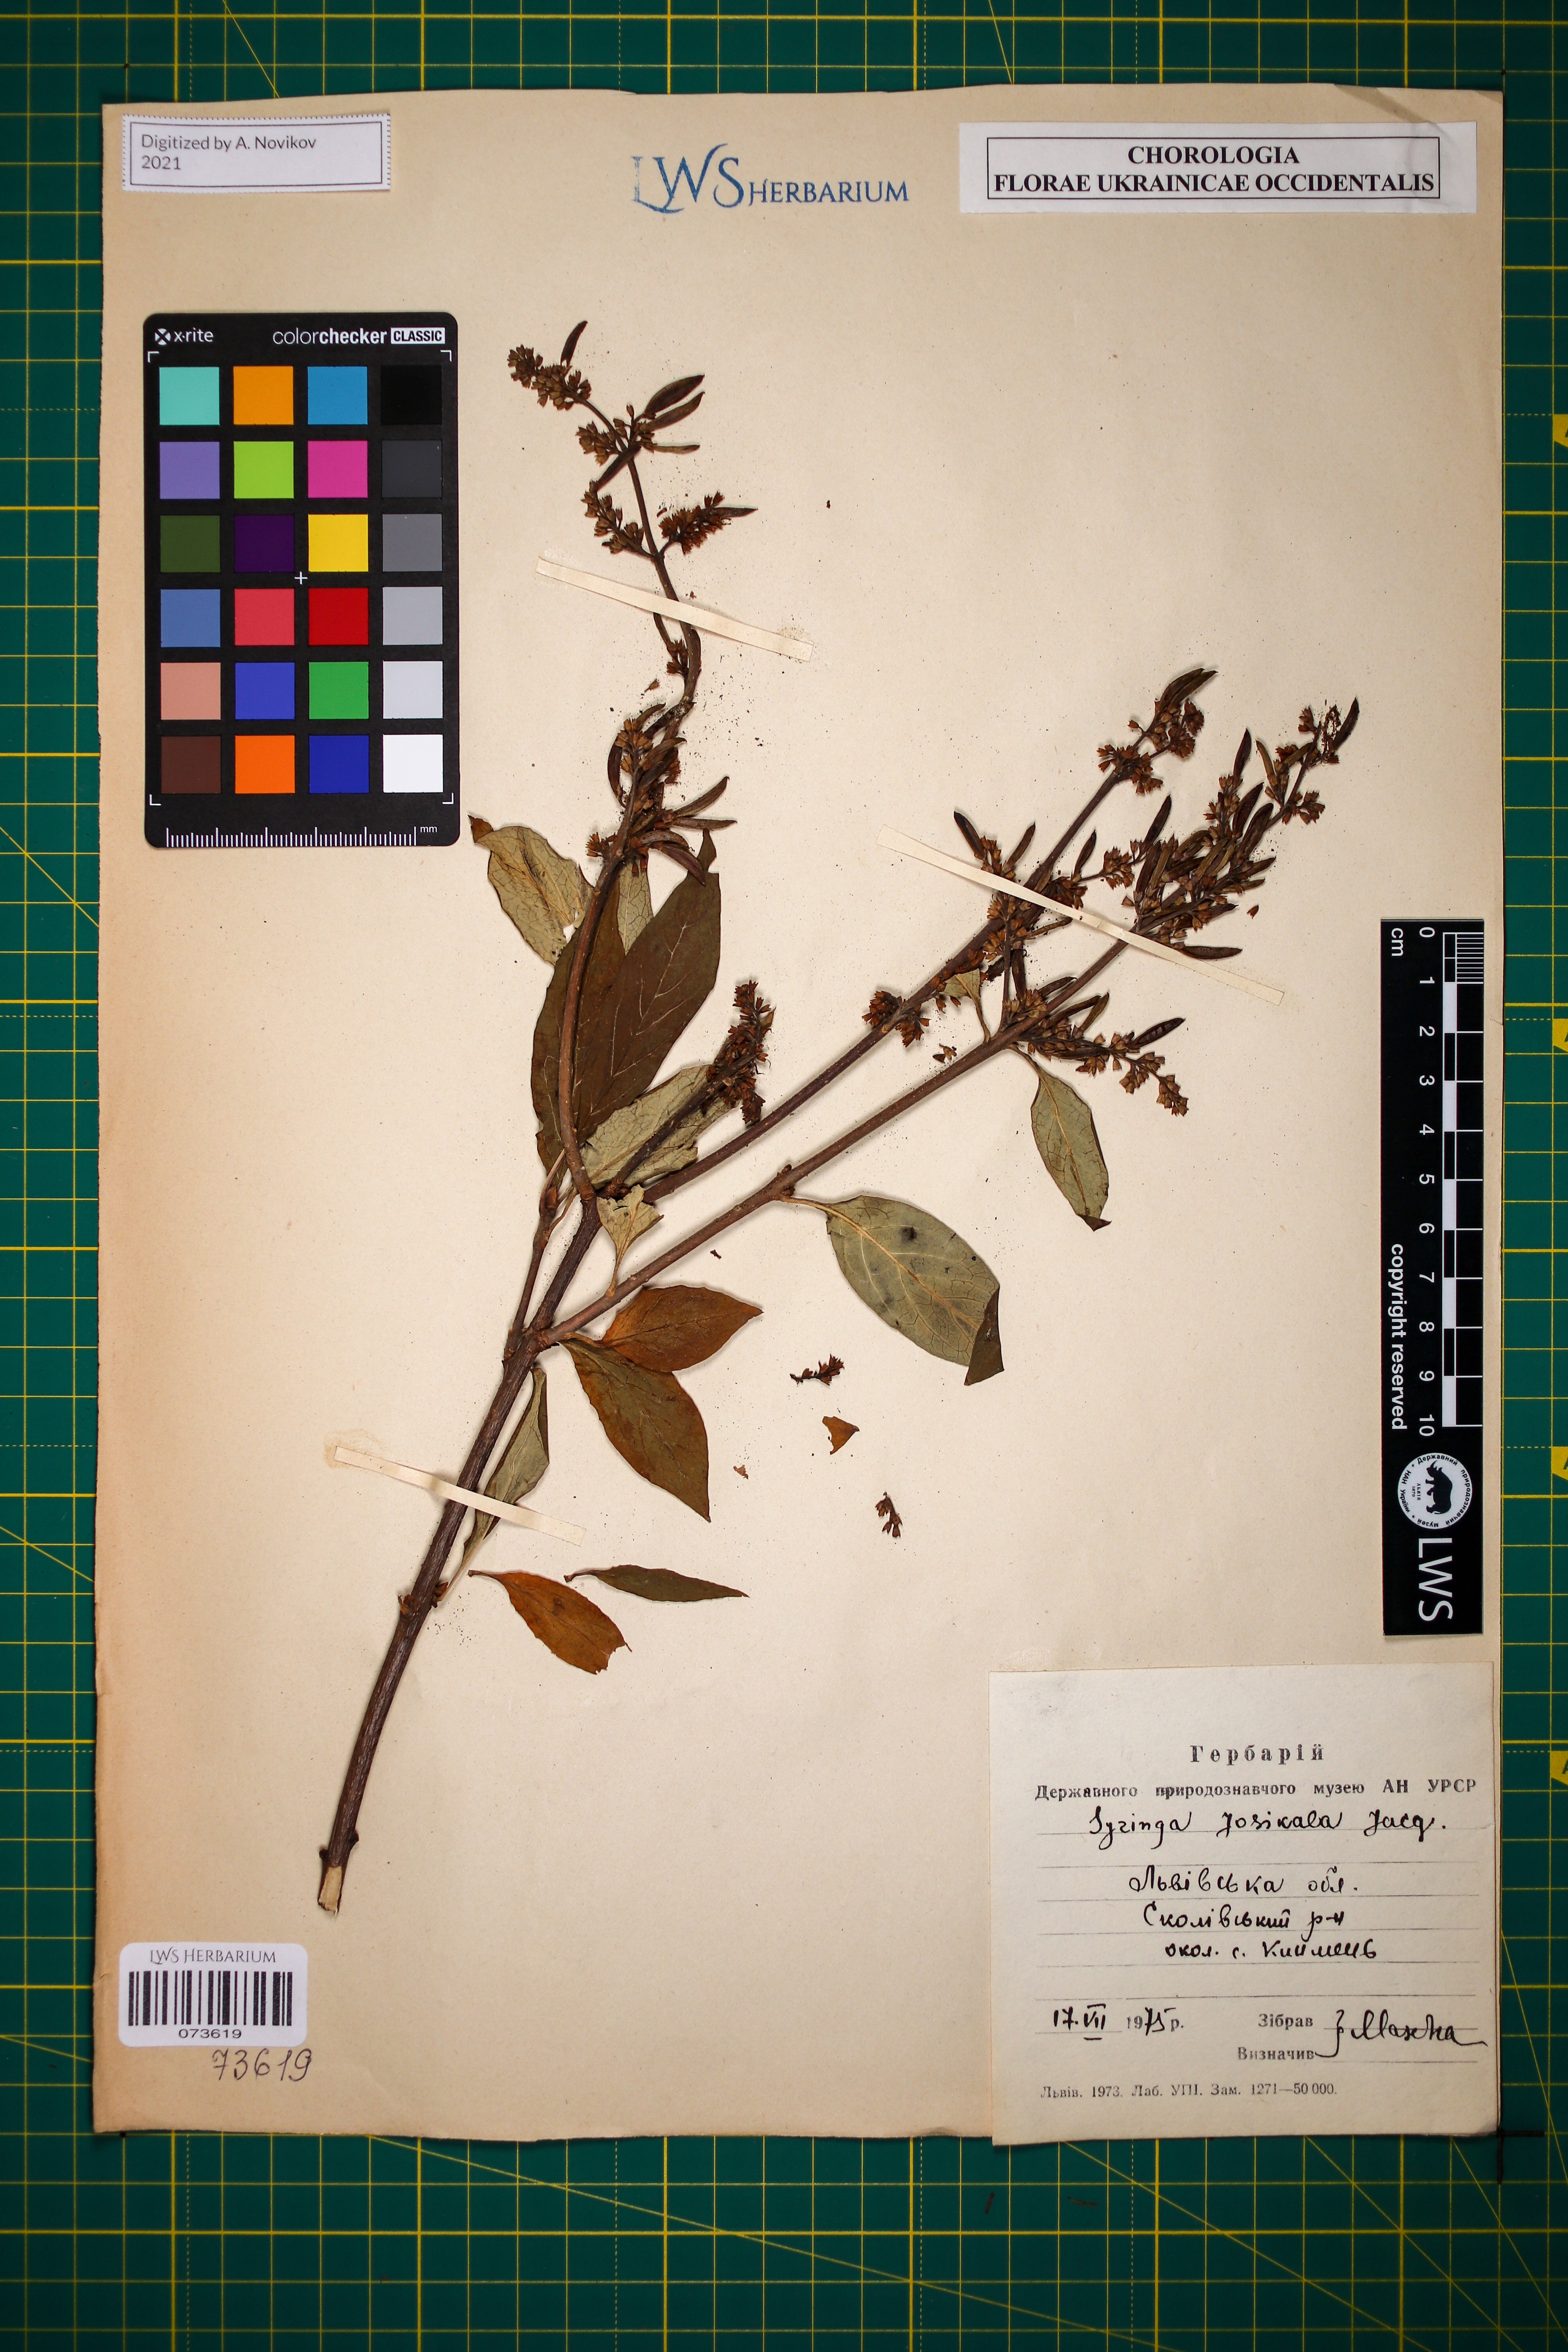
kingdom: Plantae
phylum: Tracheophyta
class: Magnoliopsida
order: Lamiales
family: Oleaceae
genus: Syringa
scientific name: Syringa josikaea
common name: Hungarian lilac
